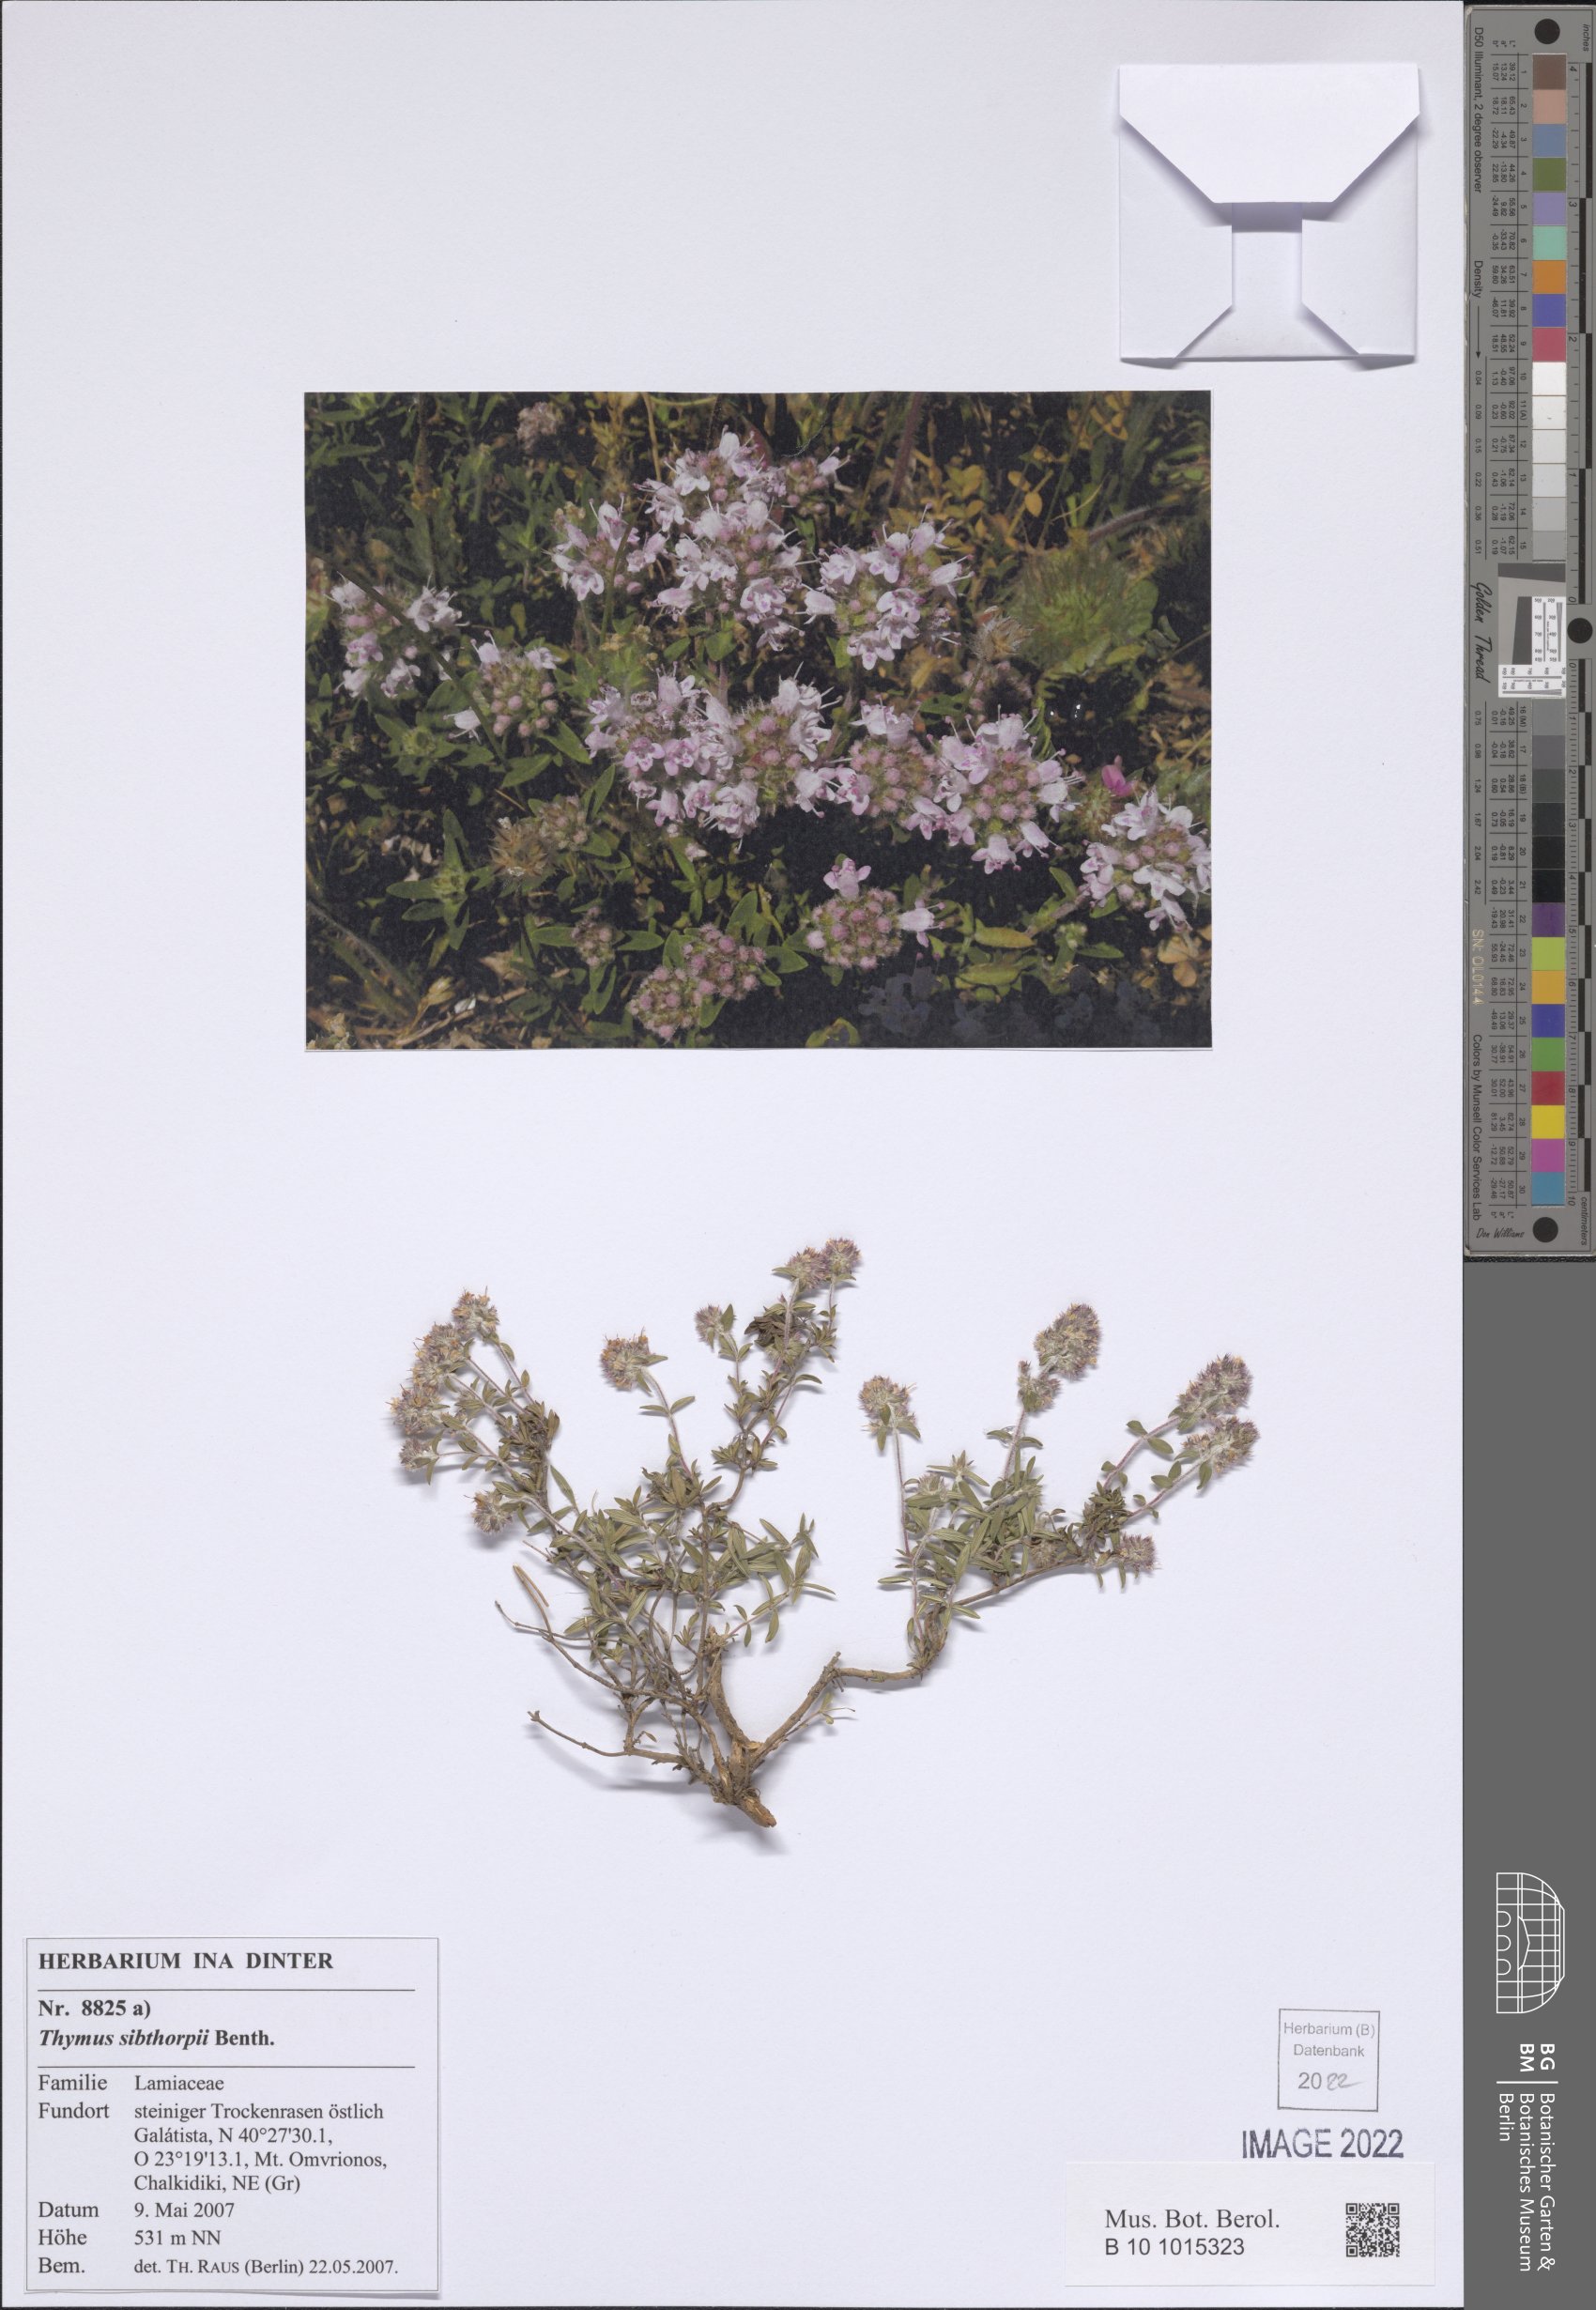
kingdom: Plantae
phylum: Tracheophyta
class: Magnoliopsida
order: Lamiales
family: Lamiaceae
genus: Thymus
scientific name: Thymus sibthorpii
